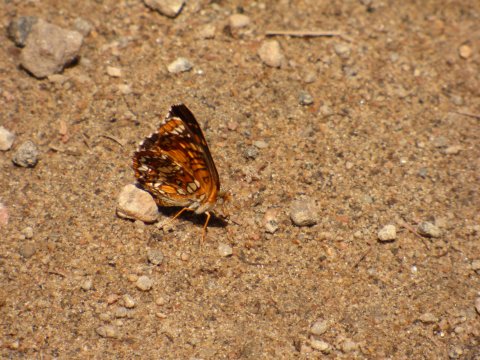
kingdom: Animalia
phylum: Arthropoda
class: Insecta
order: Lepidoptera
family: Nymphalidae
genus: Chlosyne
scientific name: Chlosyne harrisii
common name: Harris's Checkerspot
